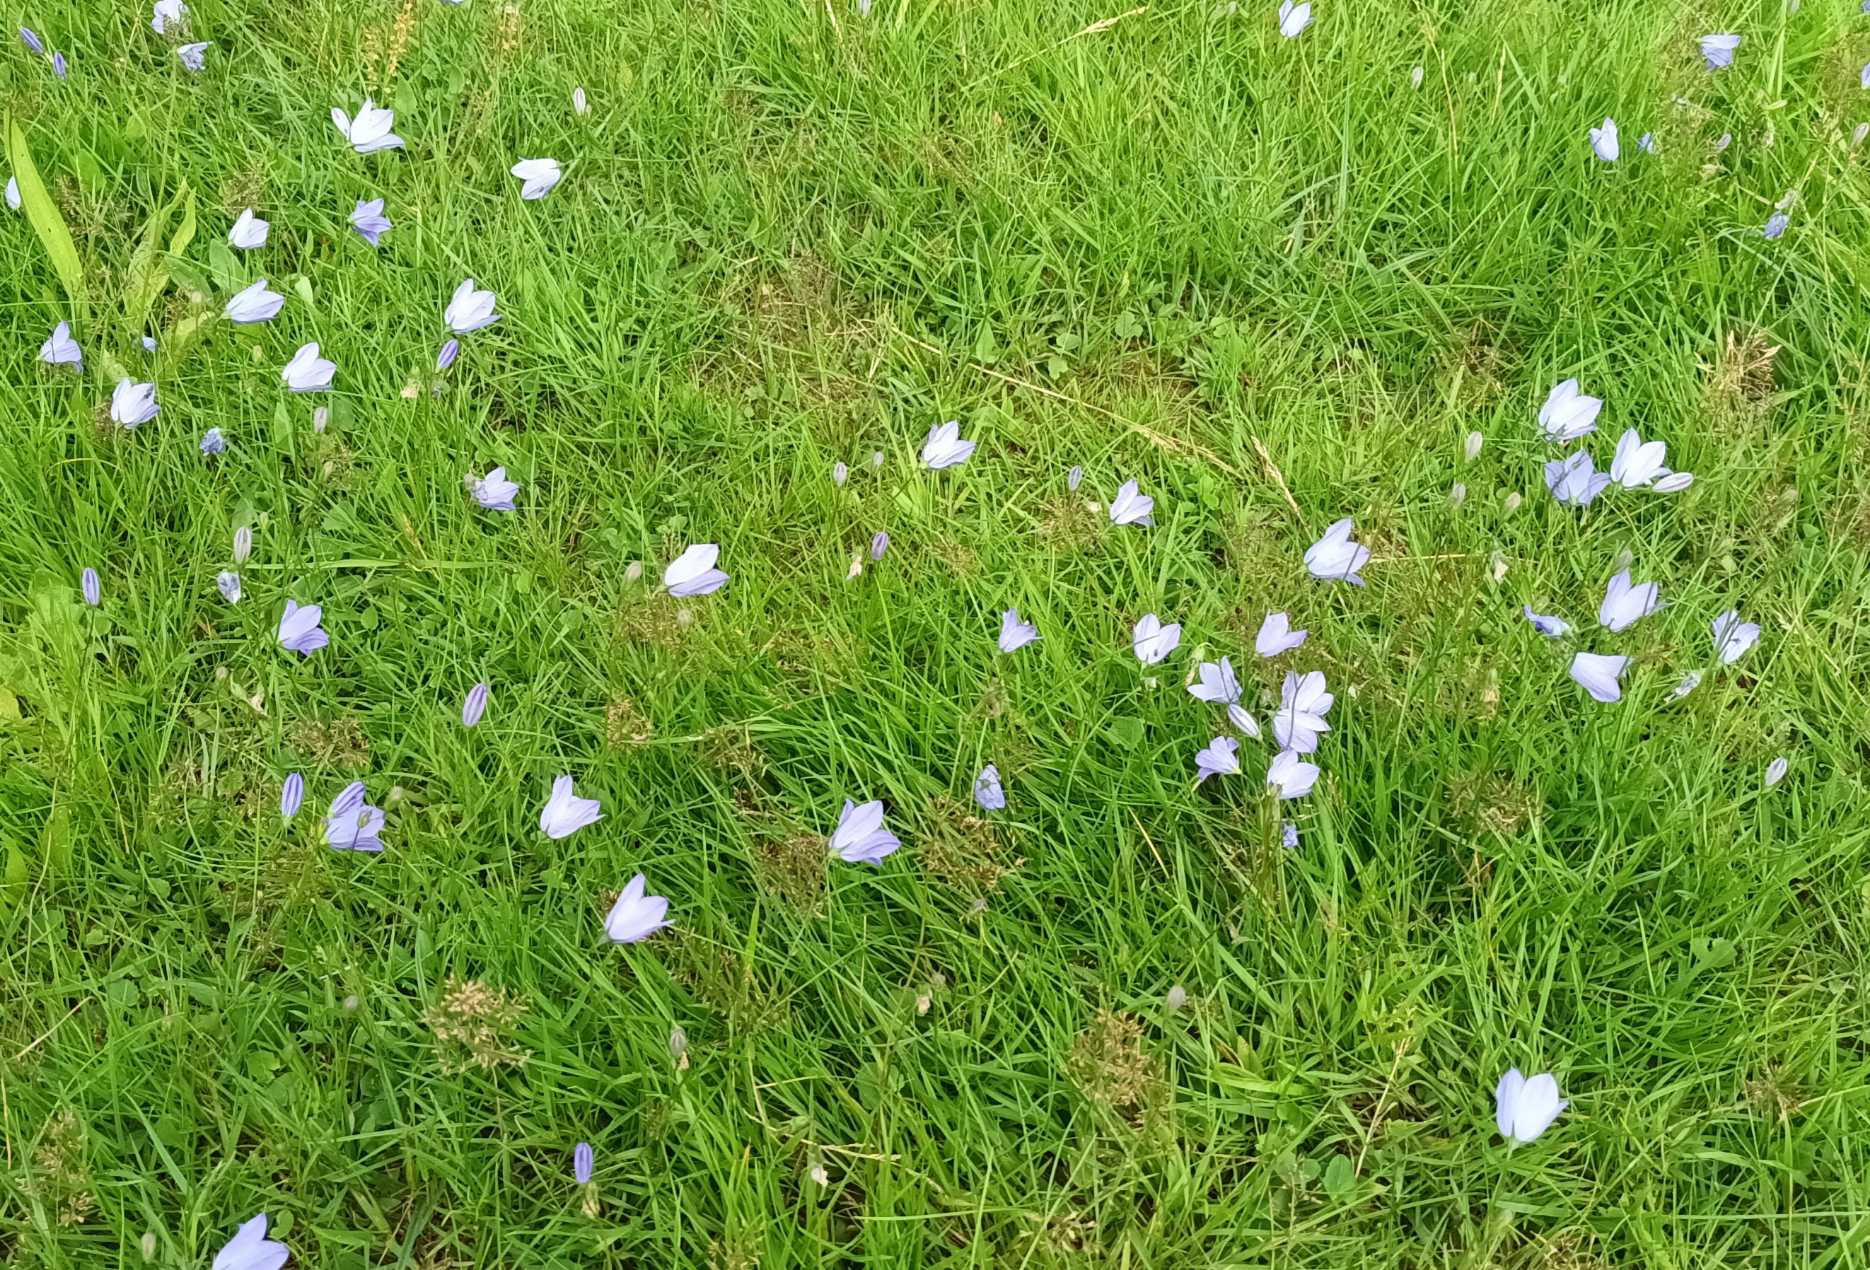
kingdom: Plantae
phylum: Tracheophyta
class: Magnoliopsida
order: Asterales
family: Campanulaceae
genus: Campanula
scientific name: Campanula rotundifolia
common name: Liden klokke
